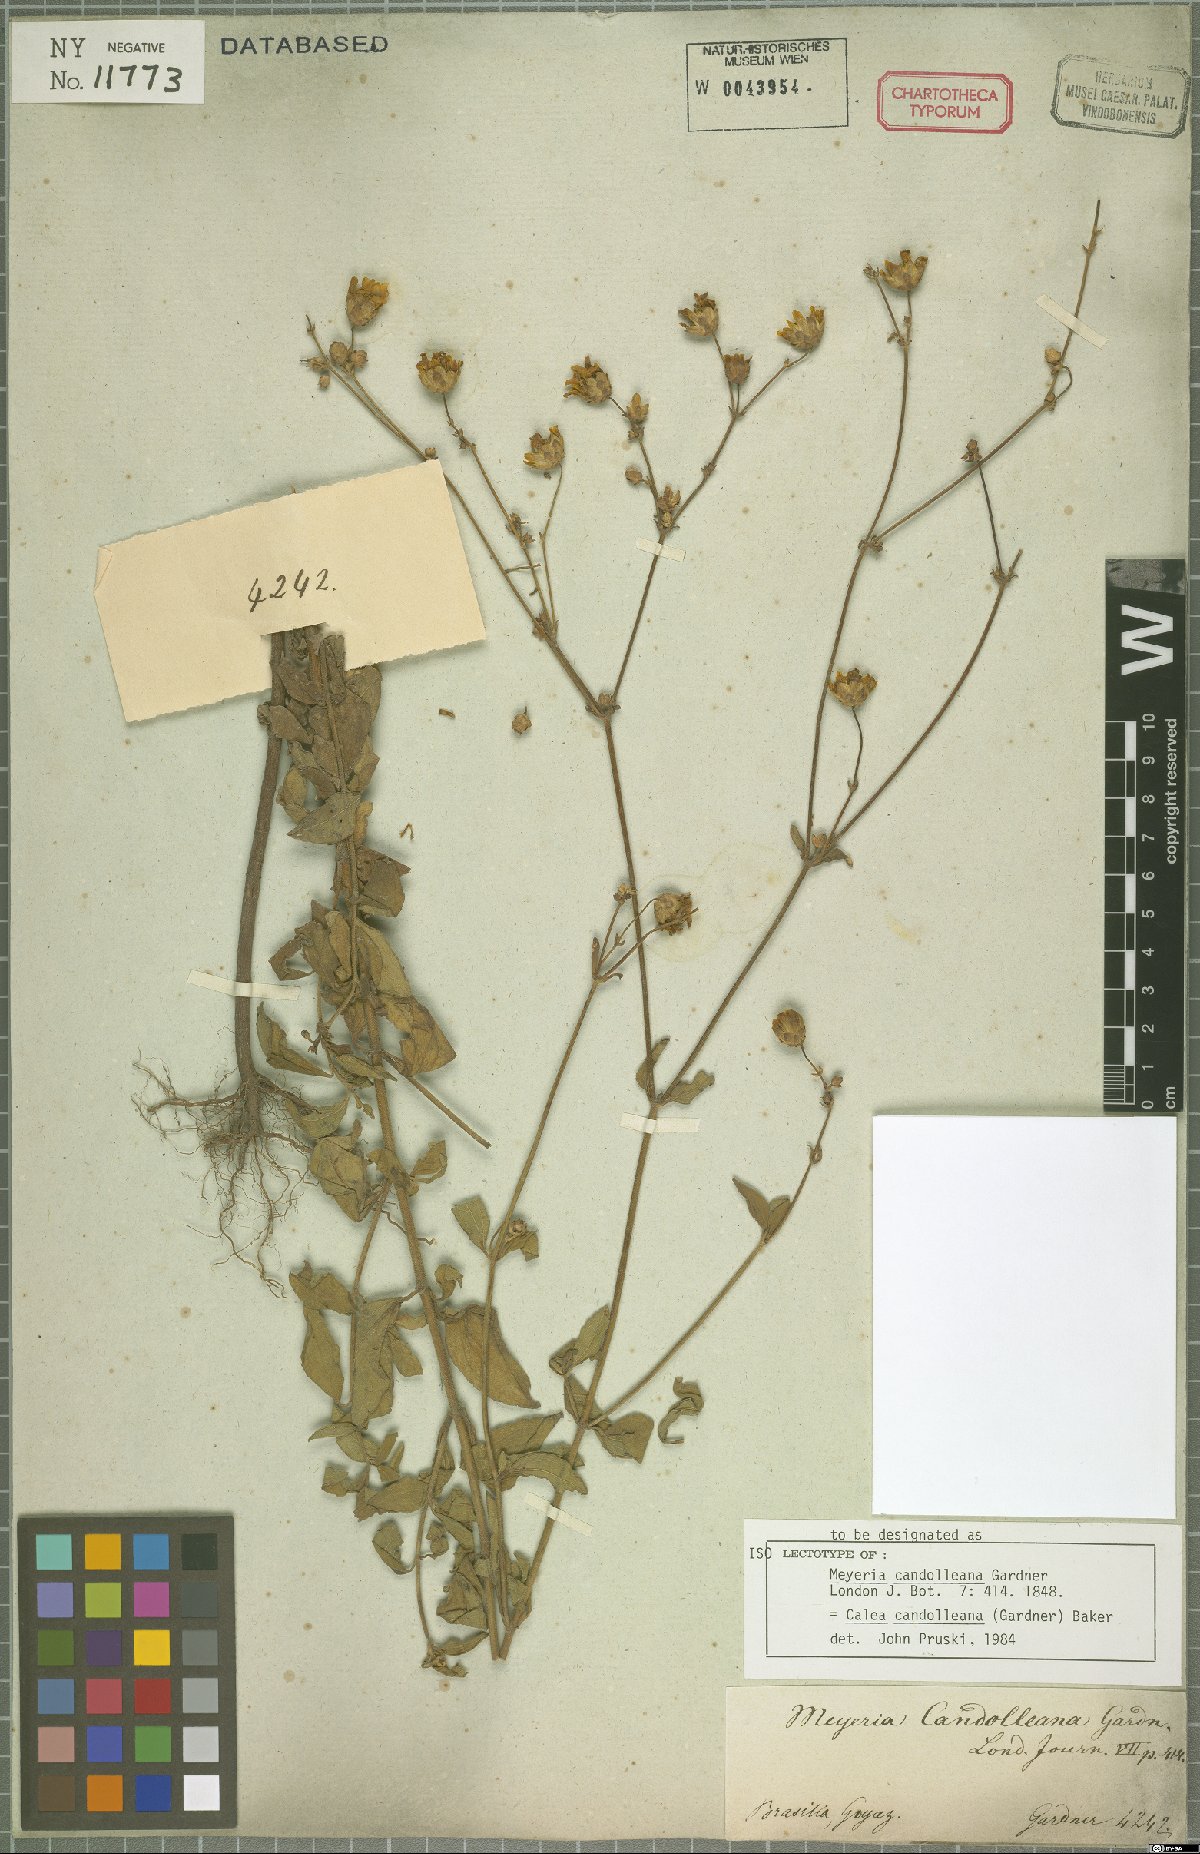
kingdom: Plantae
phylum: Tracheophyta
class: Magnoliopsida
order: Asterales
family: Asteraceae
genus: Calea
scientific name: Calea candolleana
